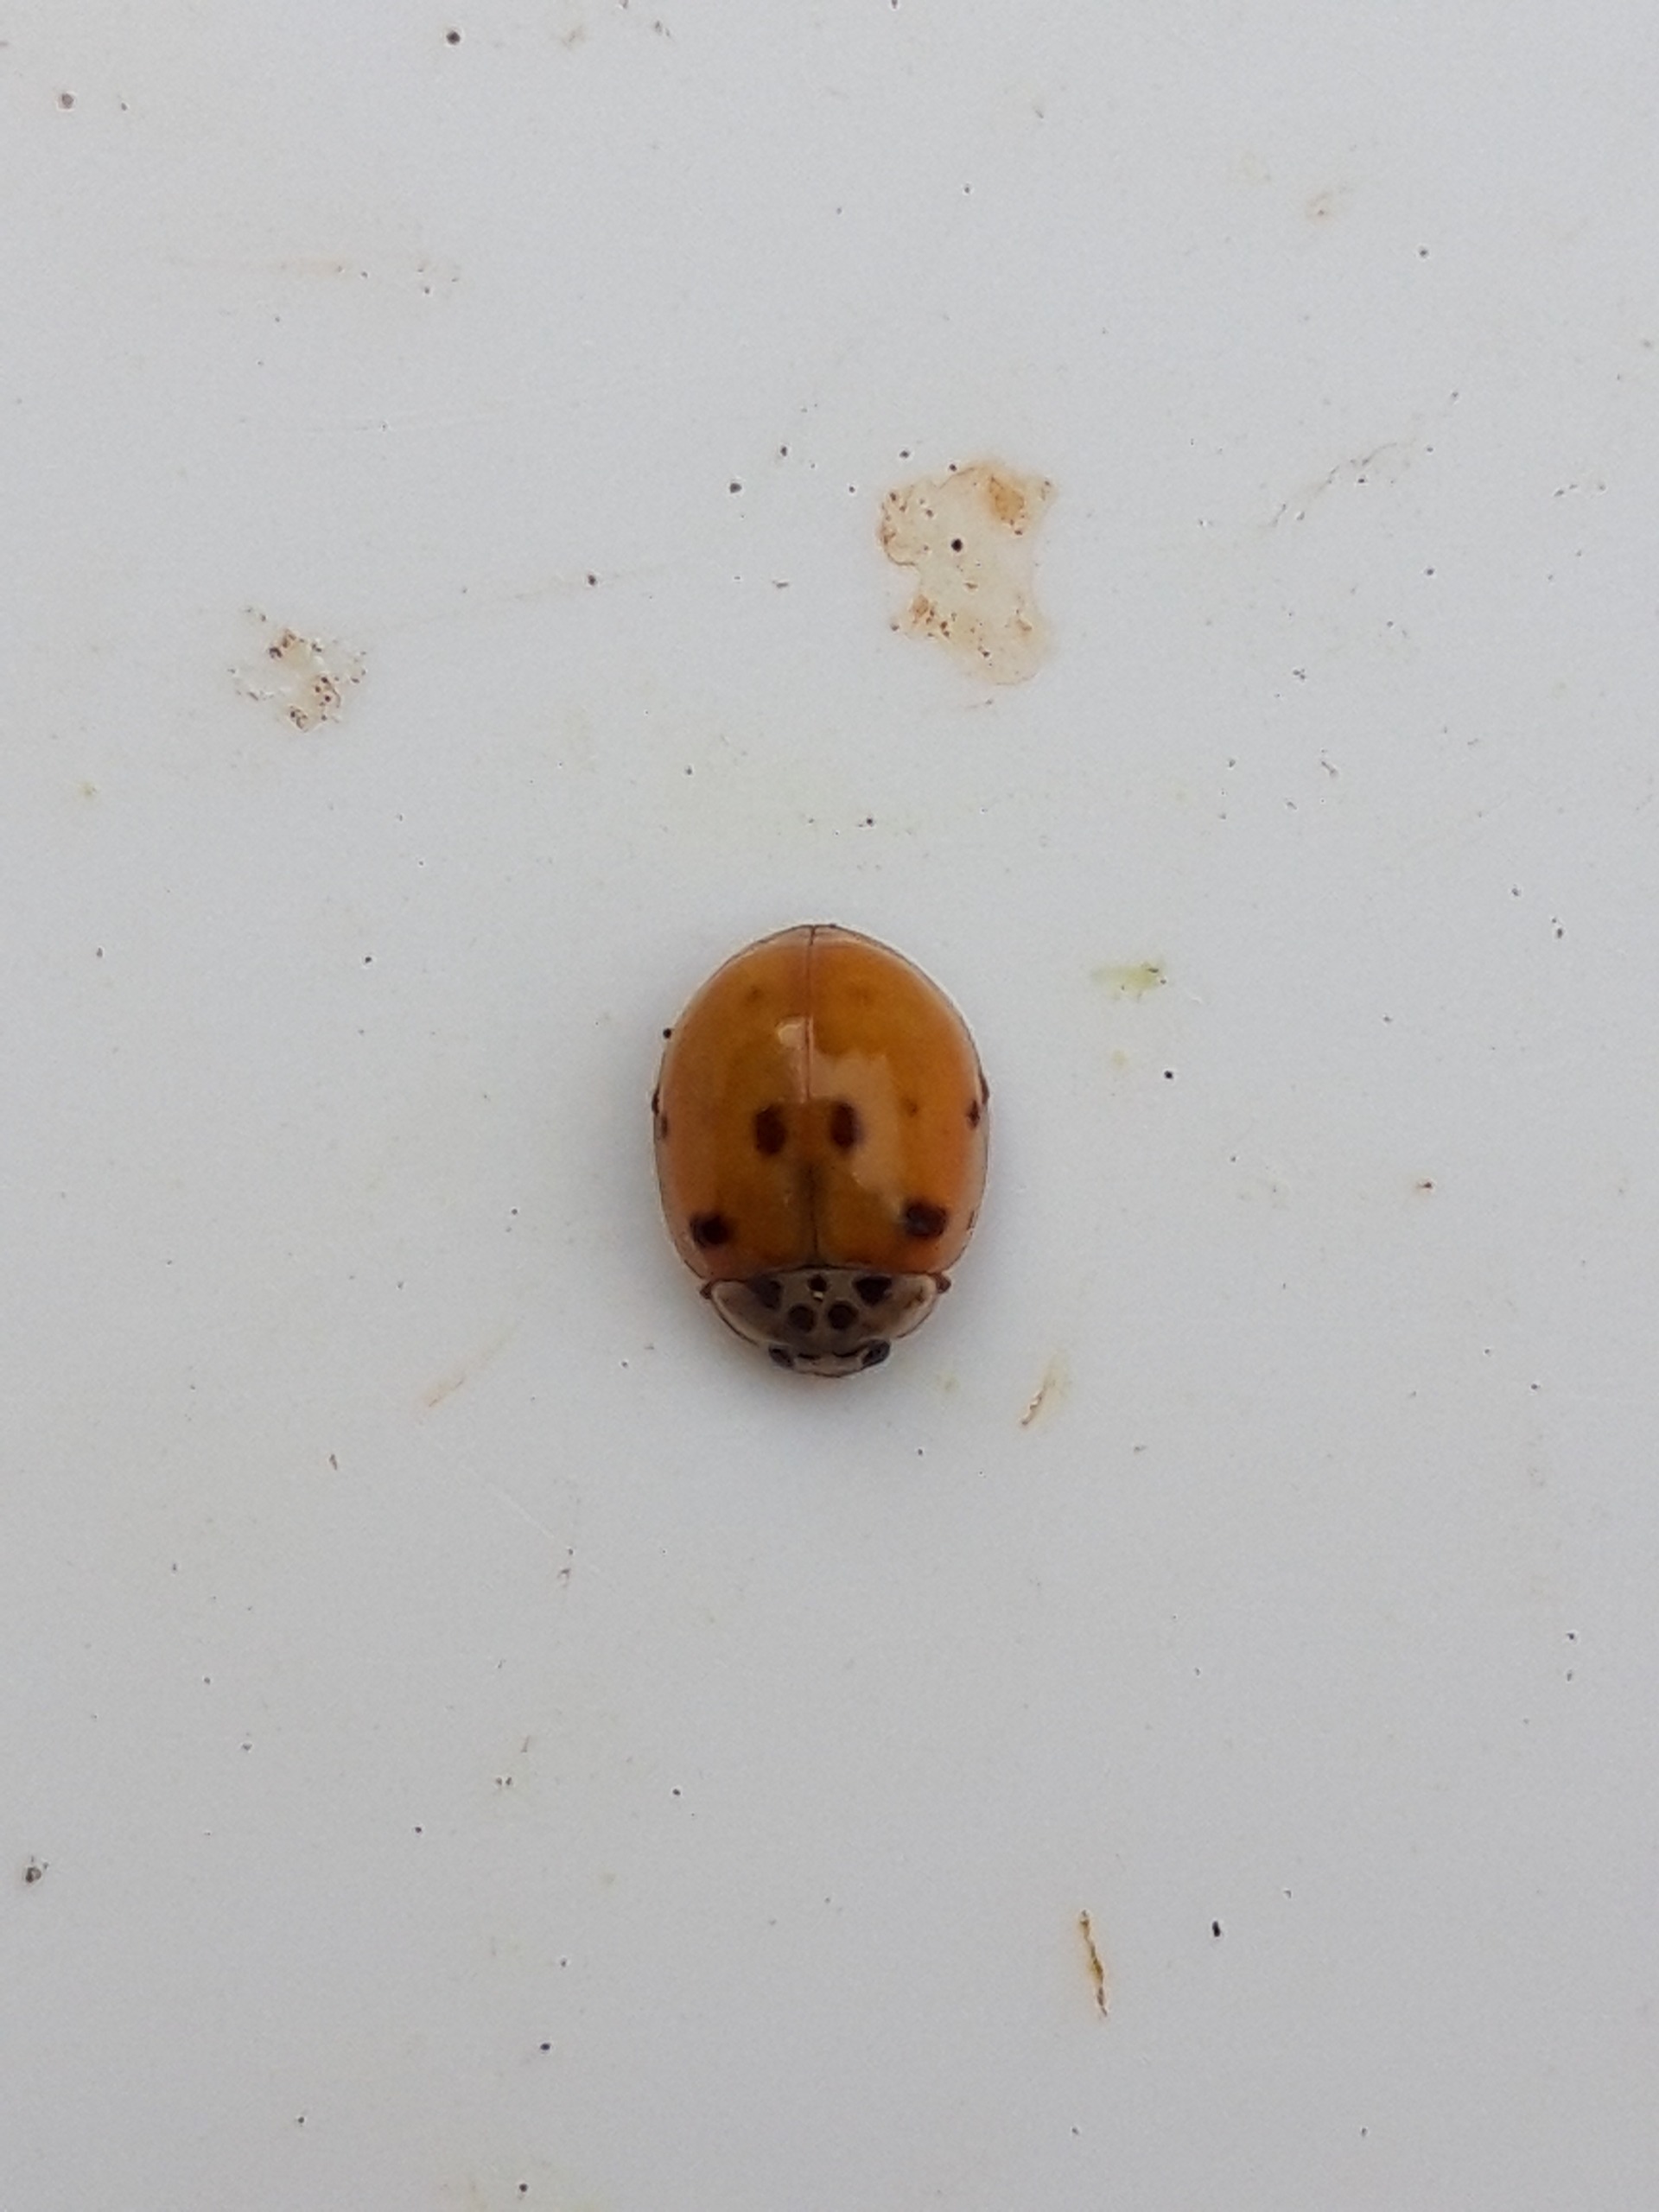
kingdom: Animalia
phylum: Arthropoda
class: Insecta
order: Coleoptera
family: Coccinellidae
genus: Adalia
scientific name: Adalia decempunctata
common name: Tiplettet mariehøne
